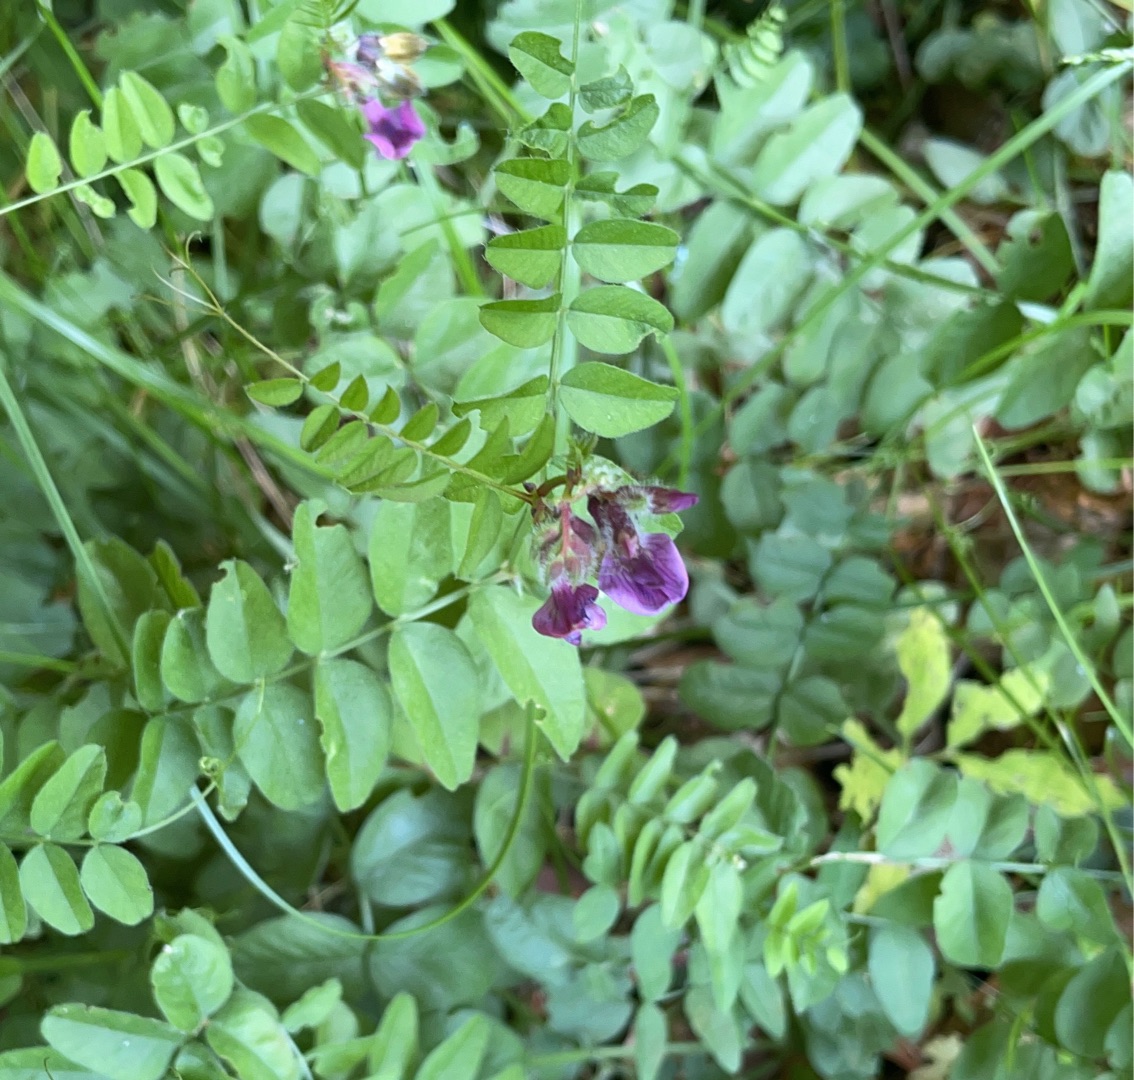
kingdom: Plantae
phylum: Tracheophyta
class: Magnoliopsida
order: Fabales
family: Fabaceae
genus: Vicia
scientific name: Vicia sepium
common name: Gærde-vikke
